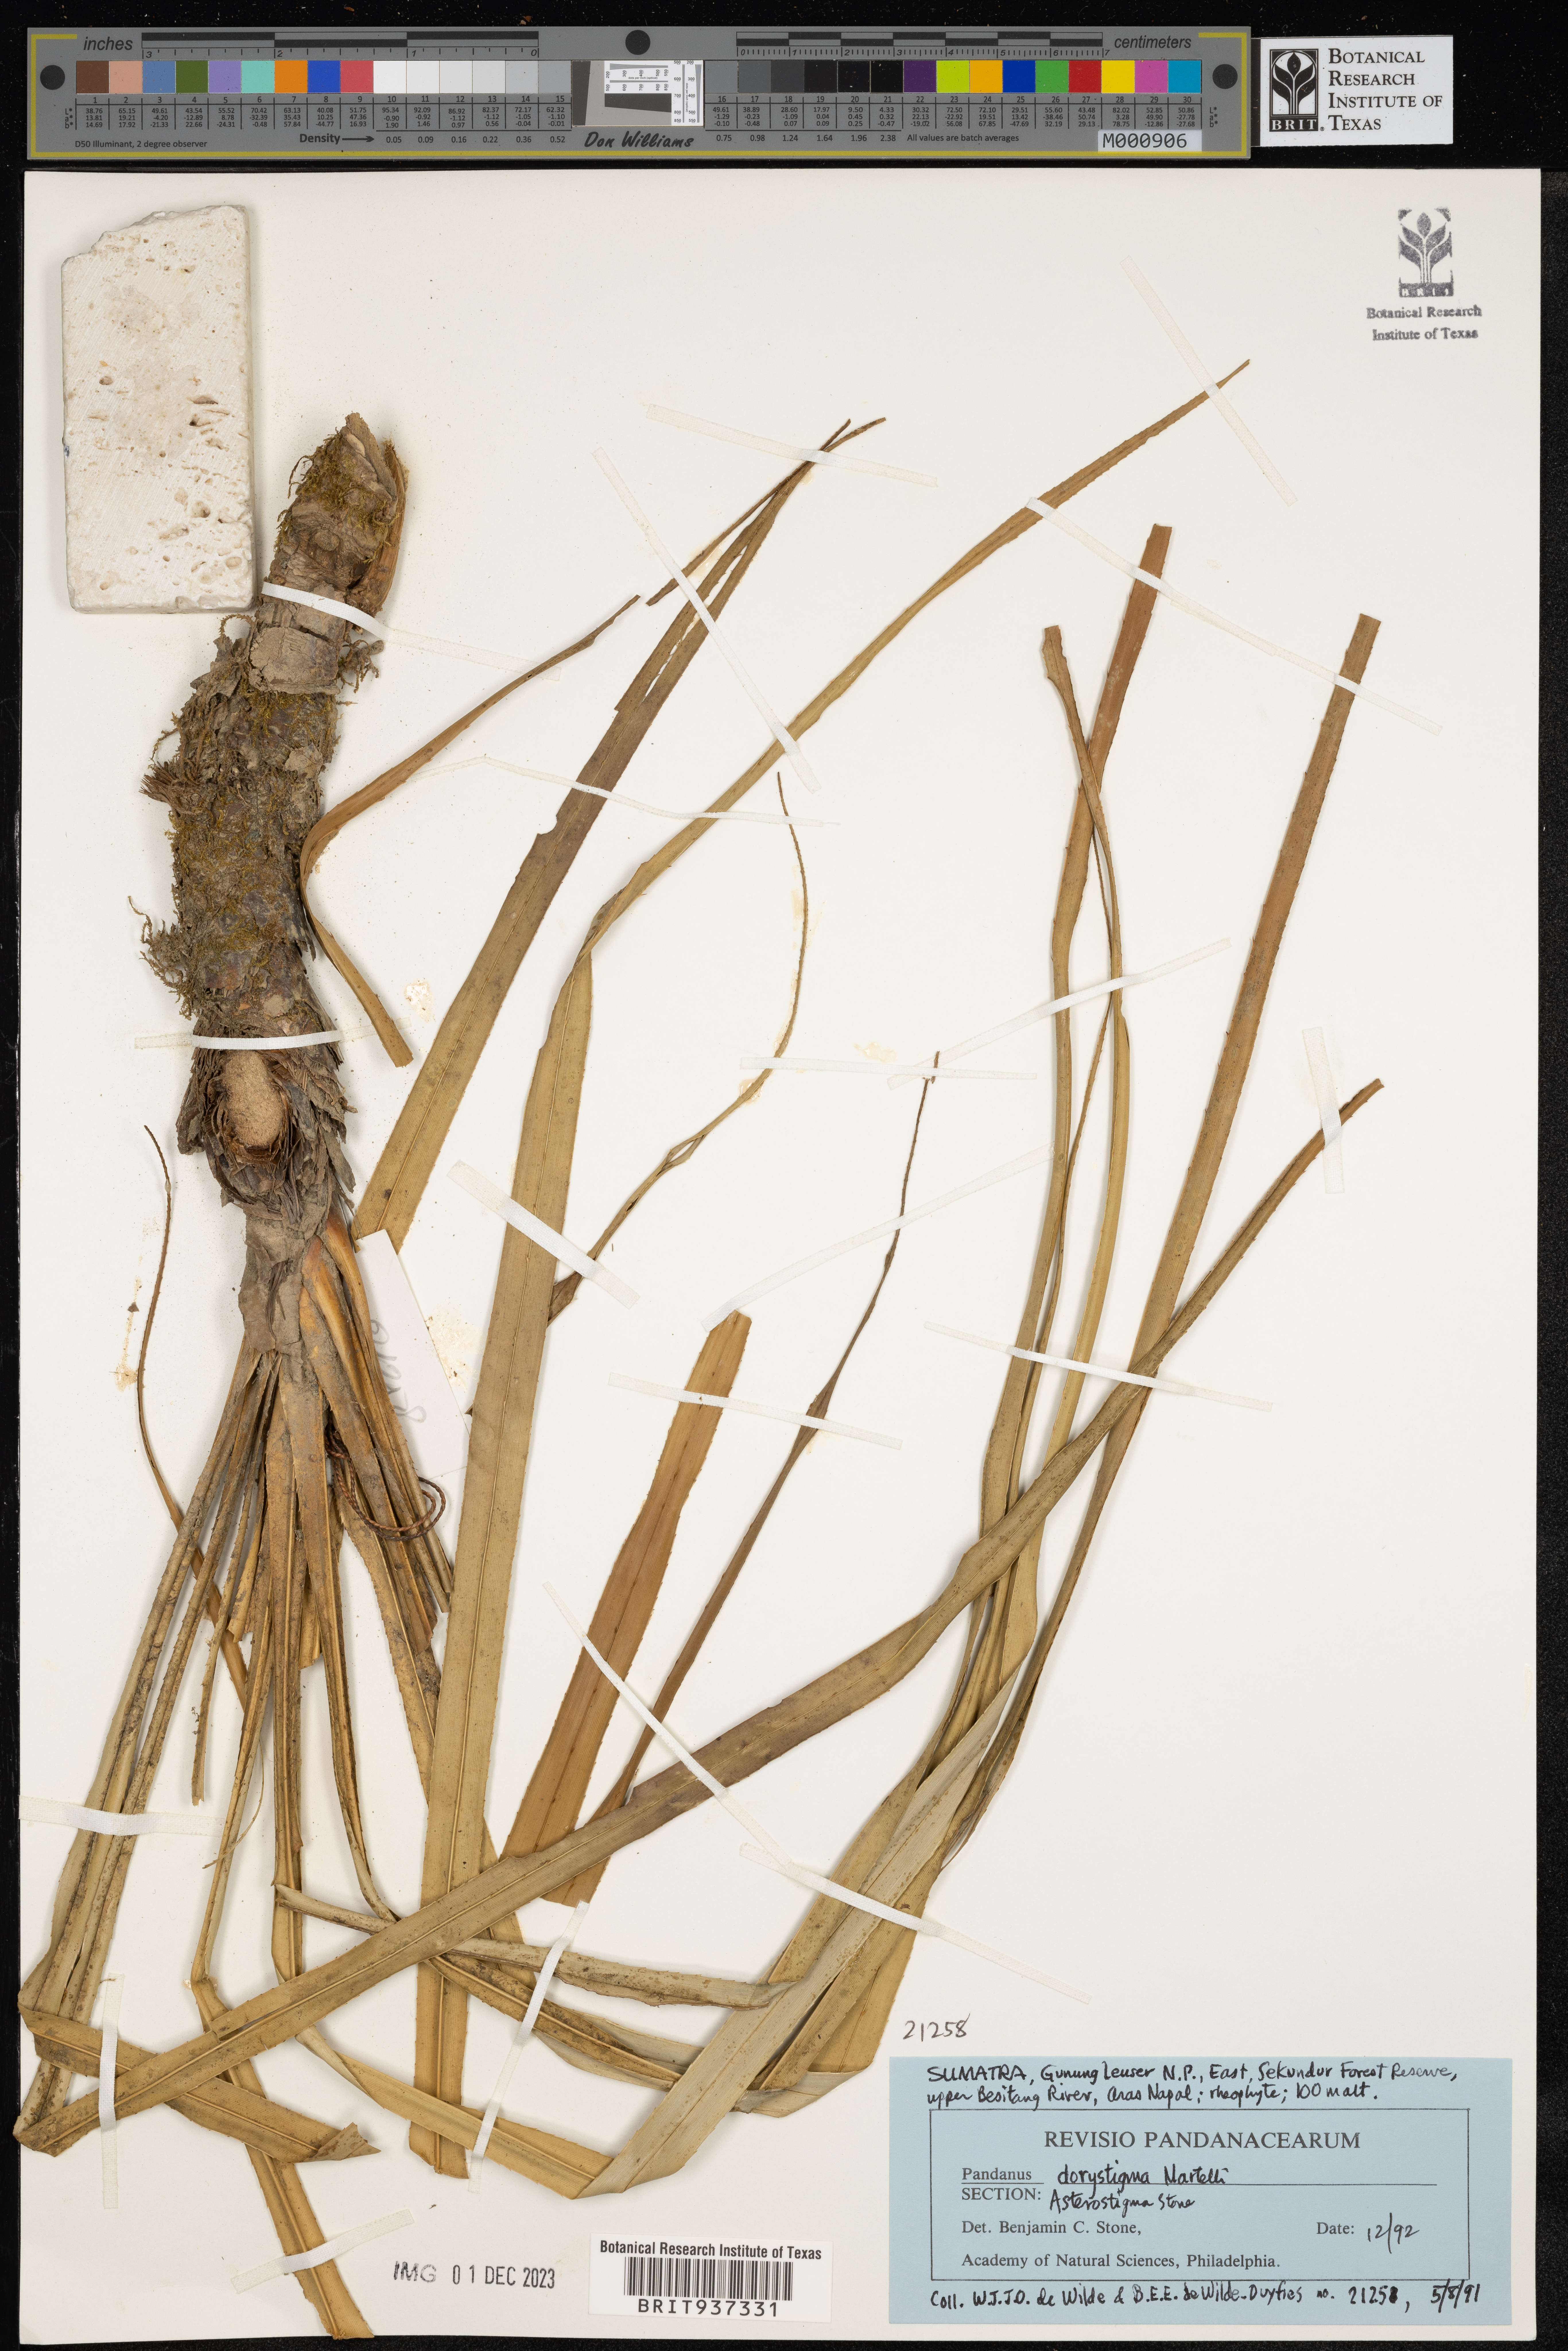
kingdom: Plantae
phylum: Tracheophyta
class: Liliopsida
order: Pandanales
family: Pandanaceae
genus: Pandanus
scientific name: Pandanus
